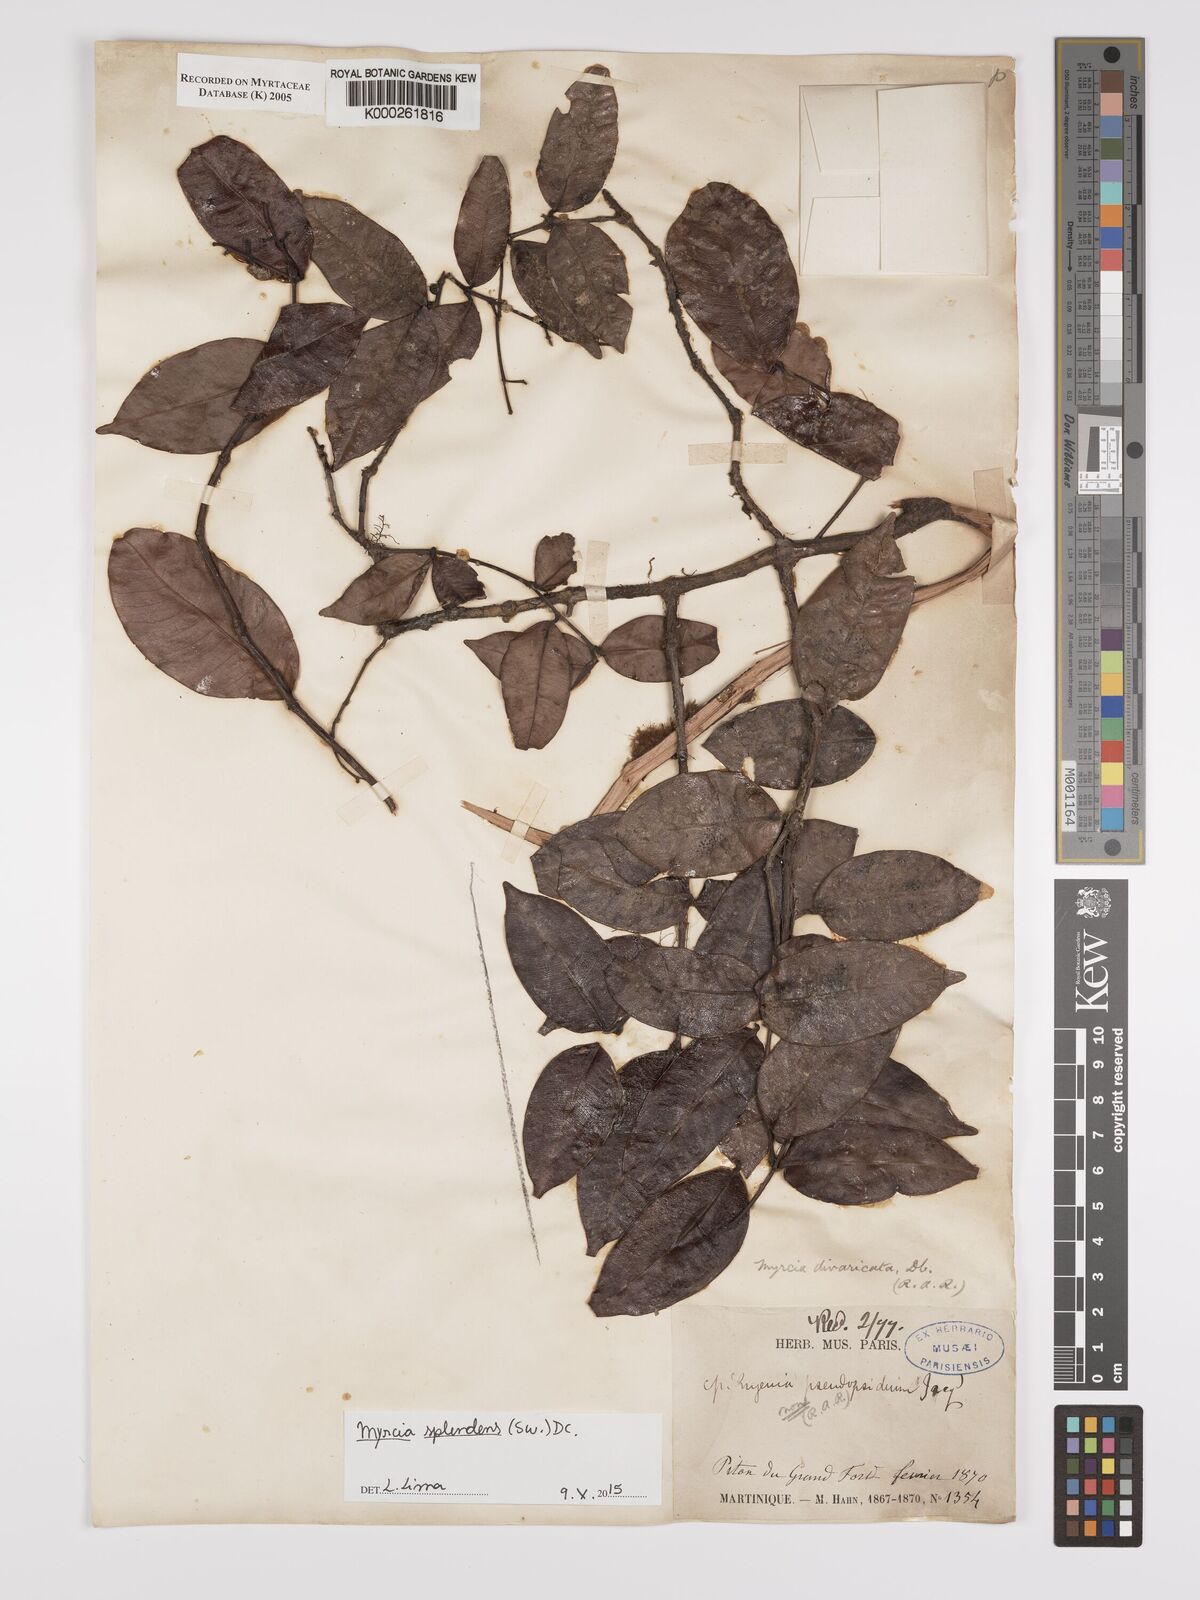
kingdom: Plantae
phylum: Tracheophyta
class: Magnoliopsida
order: Myrtales
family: Myrtaceae
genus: Myrcia
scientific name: Myrcia splendens
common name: Surinam cherry
